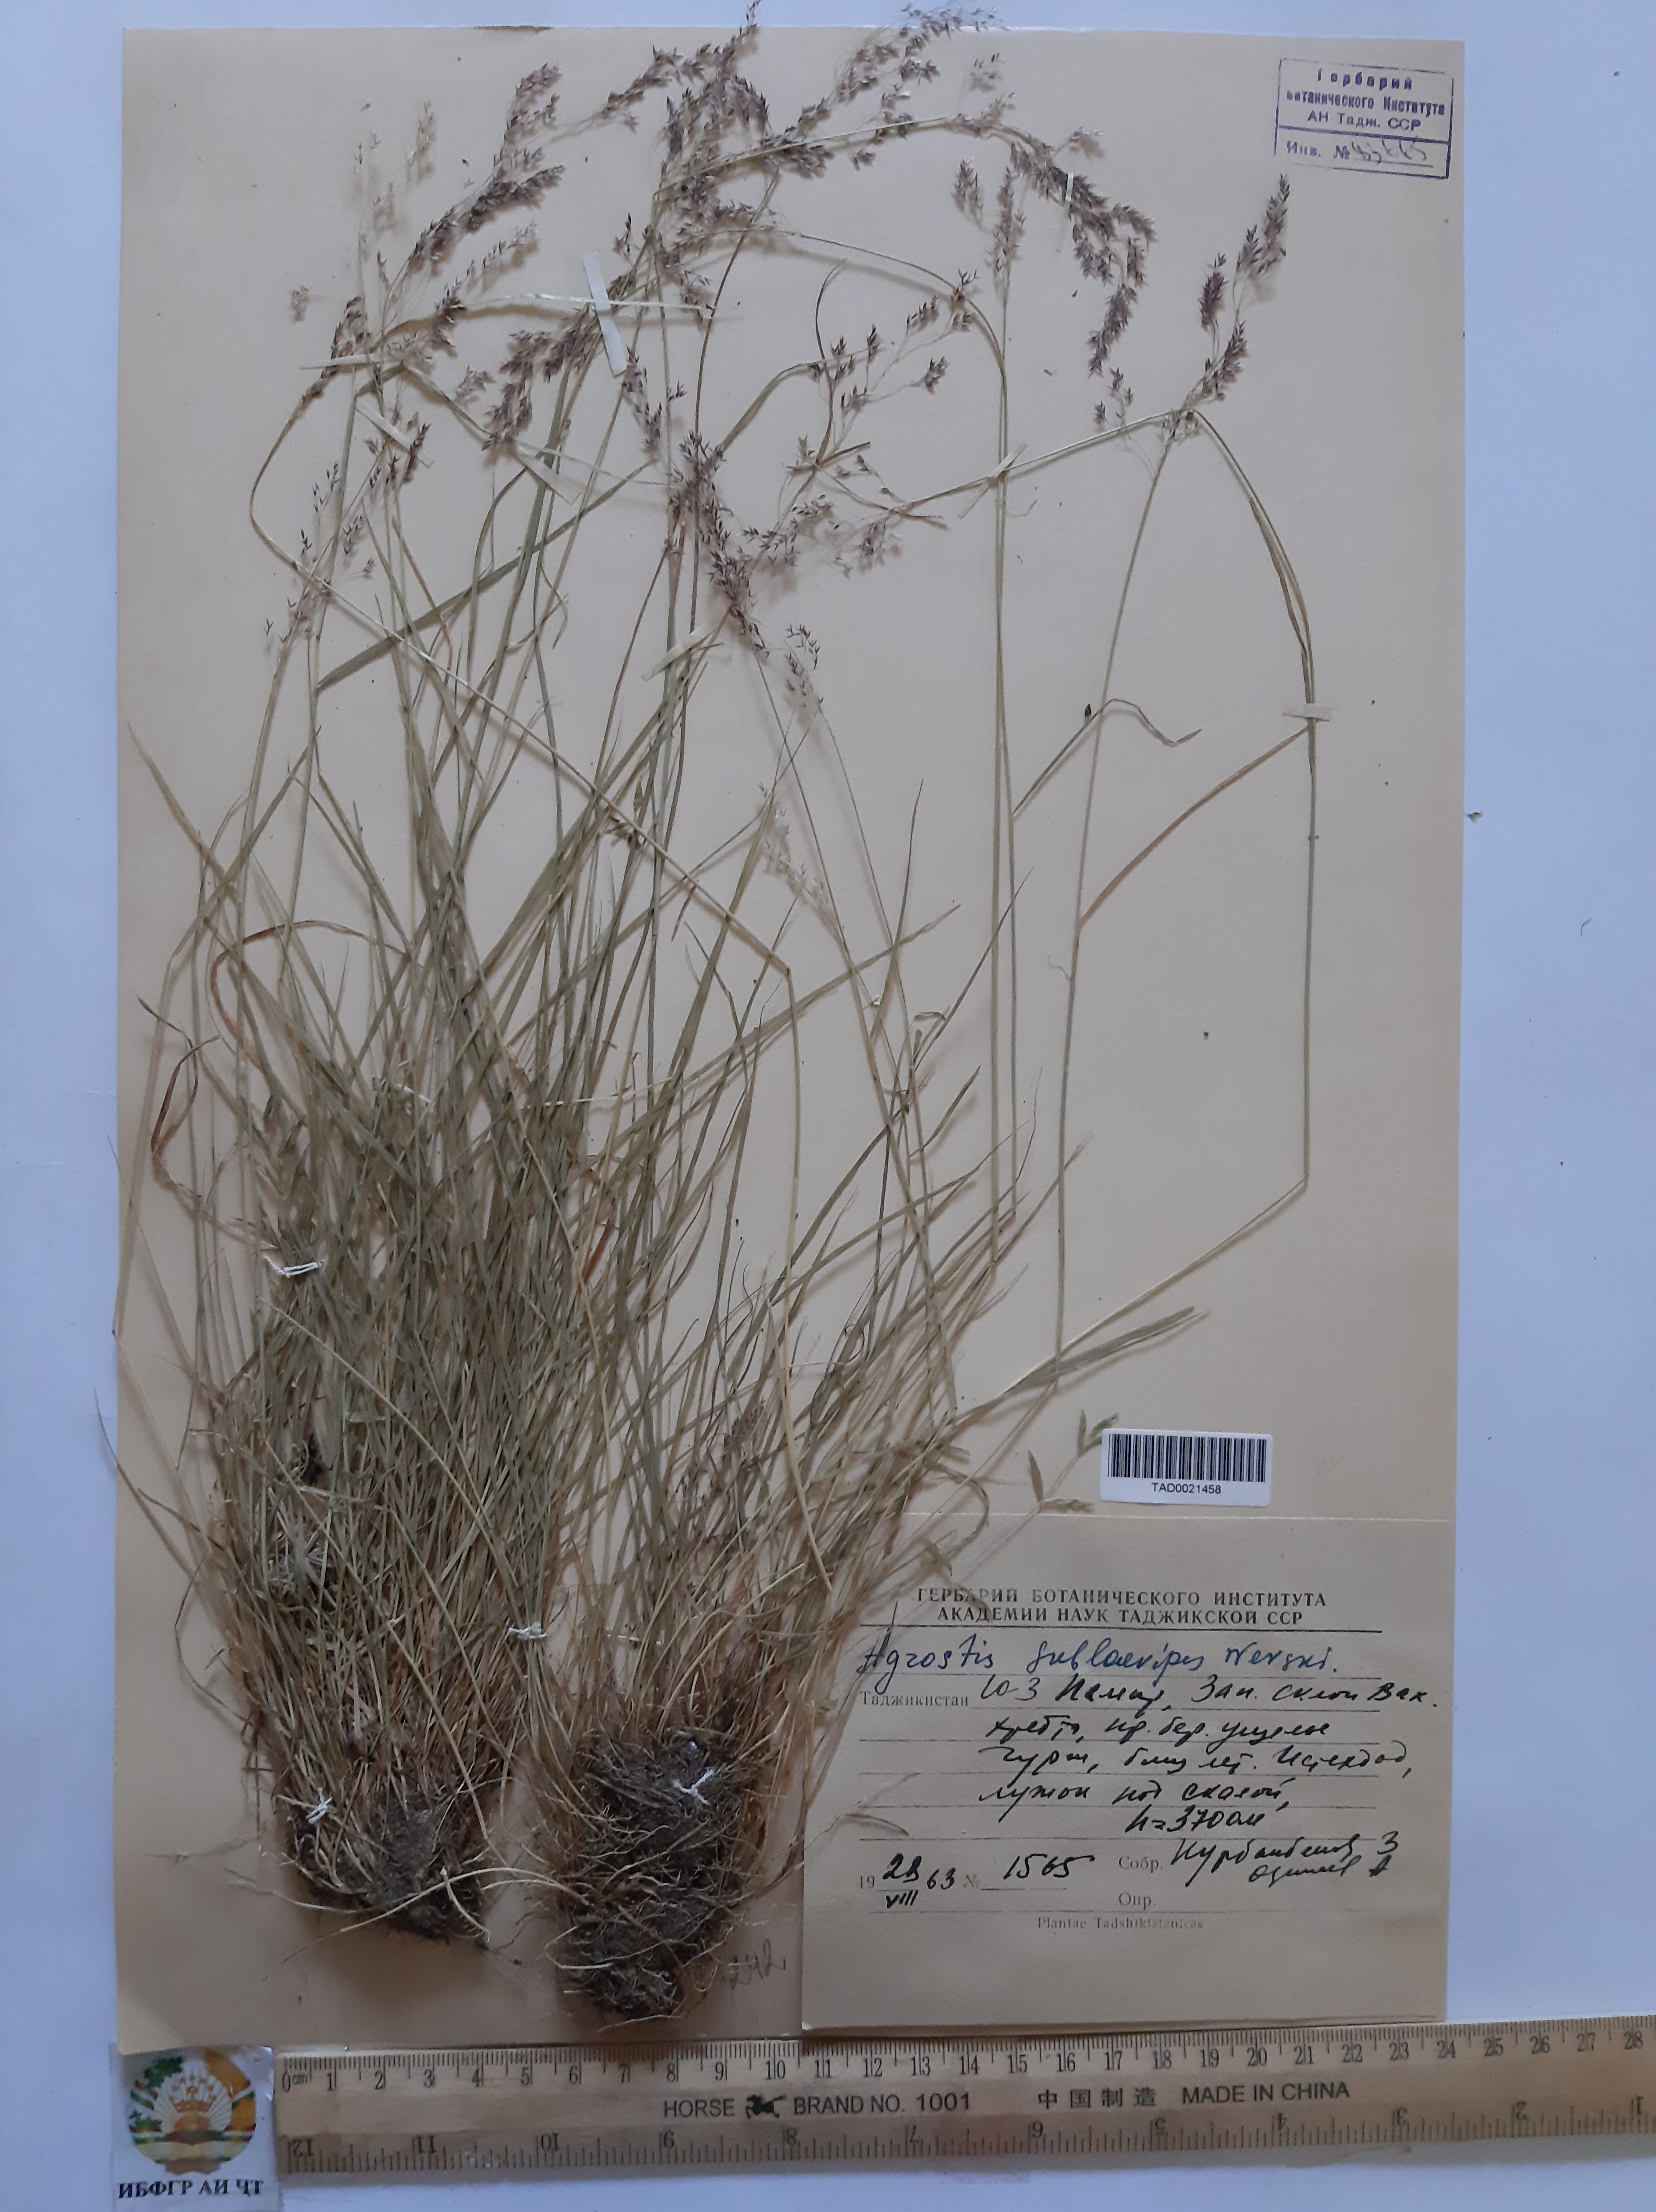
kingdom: Plantae
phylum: Tracheophyta
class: Liliopsida
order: Poales
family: Poaceae
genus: Agrostis
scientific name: Agrostis vinealis
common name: Brown bent
